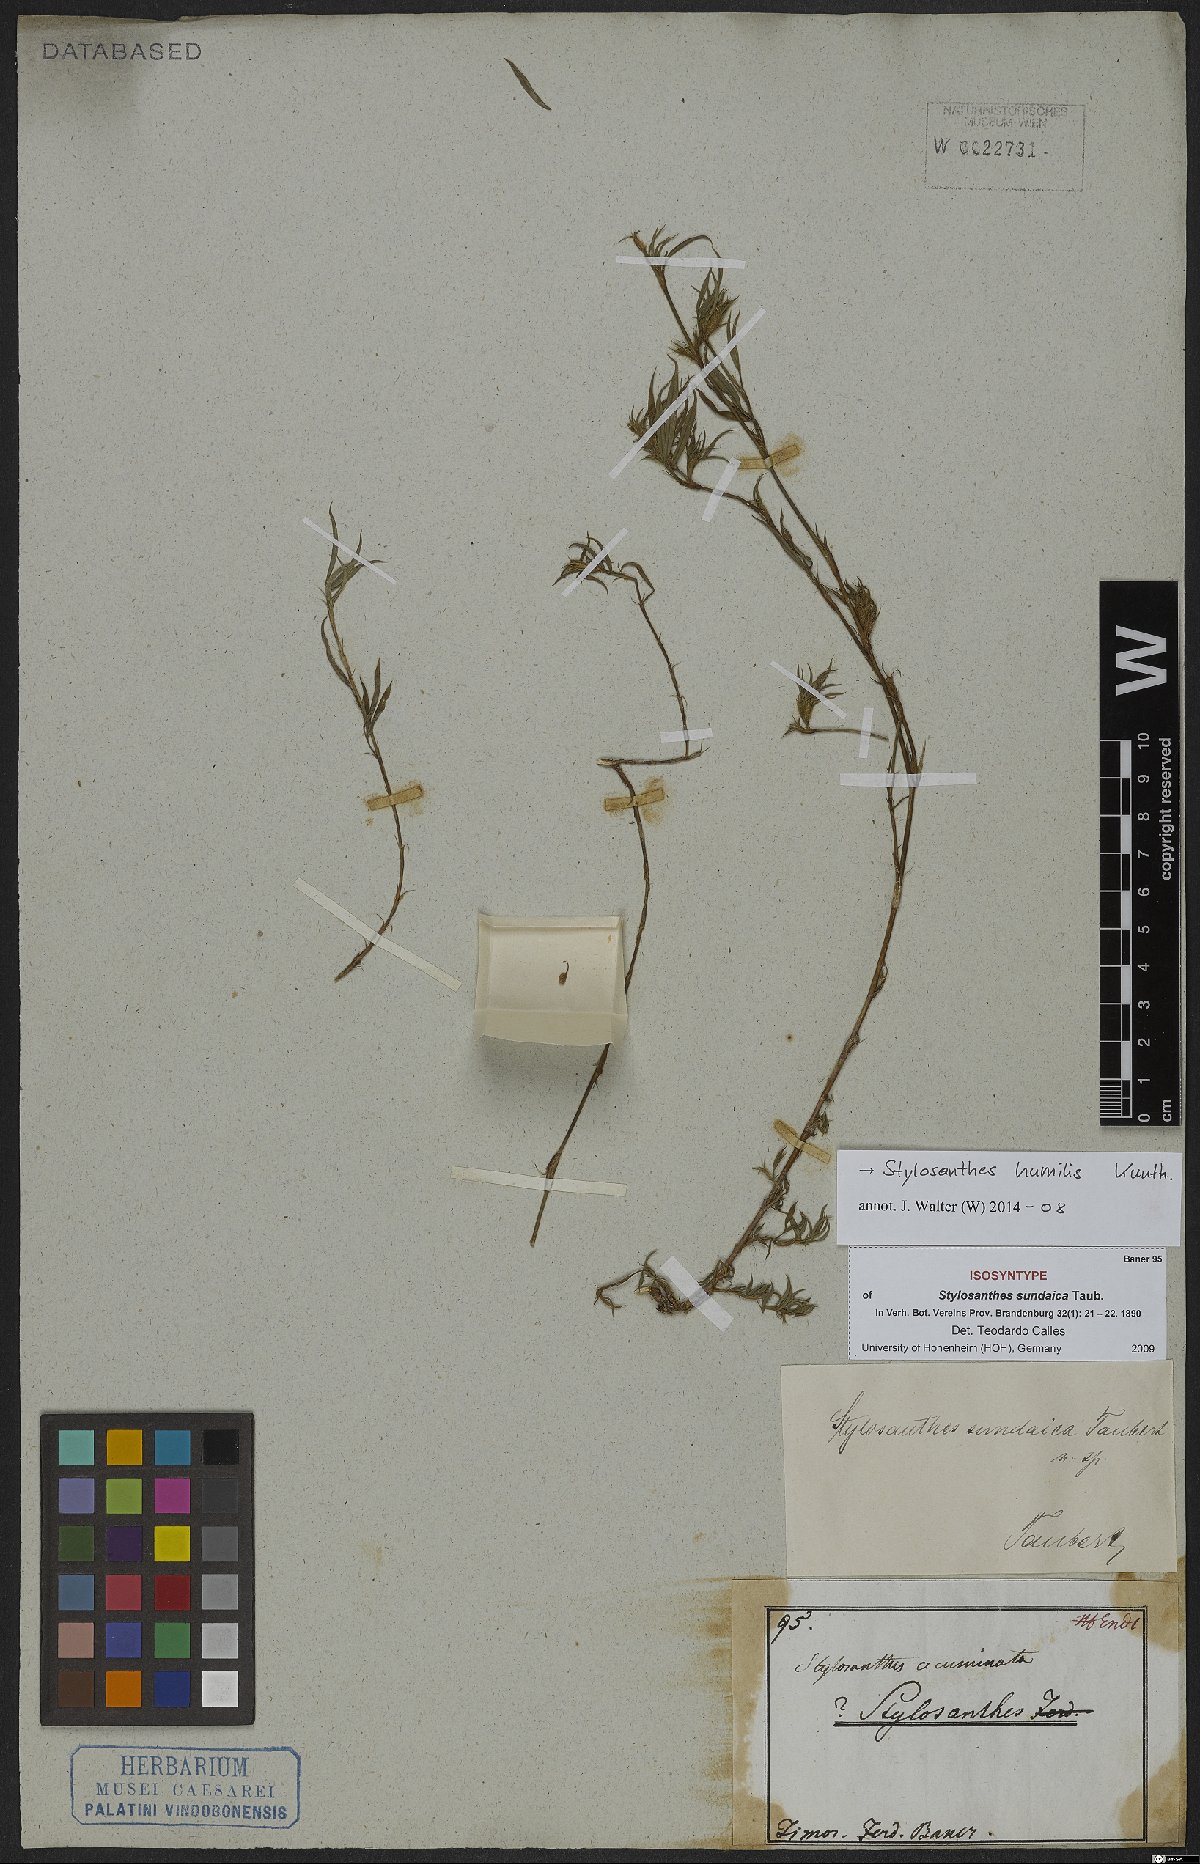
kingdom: Plantae
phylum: Tracheophyta
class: Magnoliopsida
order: Fabales
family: Fabaceae
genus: Stylosanthes
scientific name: Stylosanthes humilis
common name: Townsville stylo
